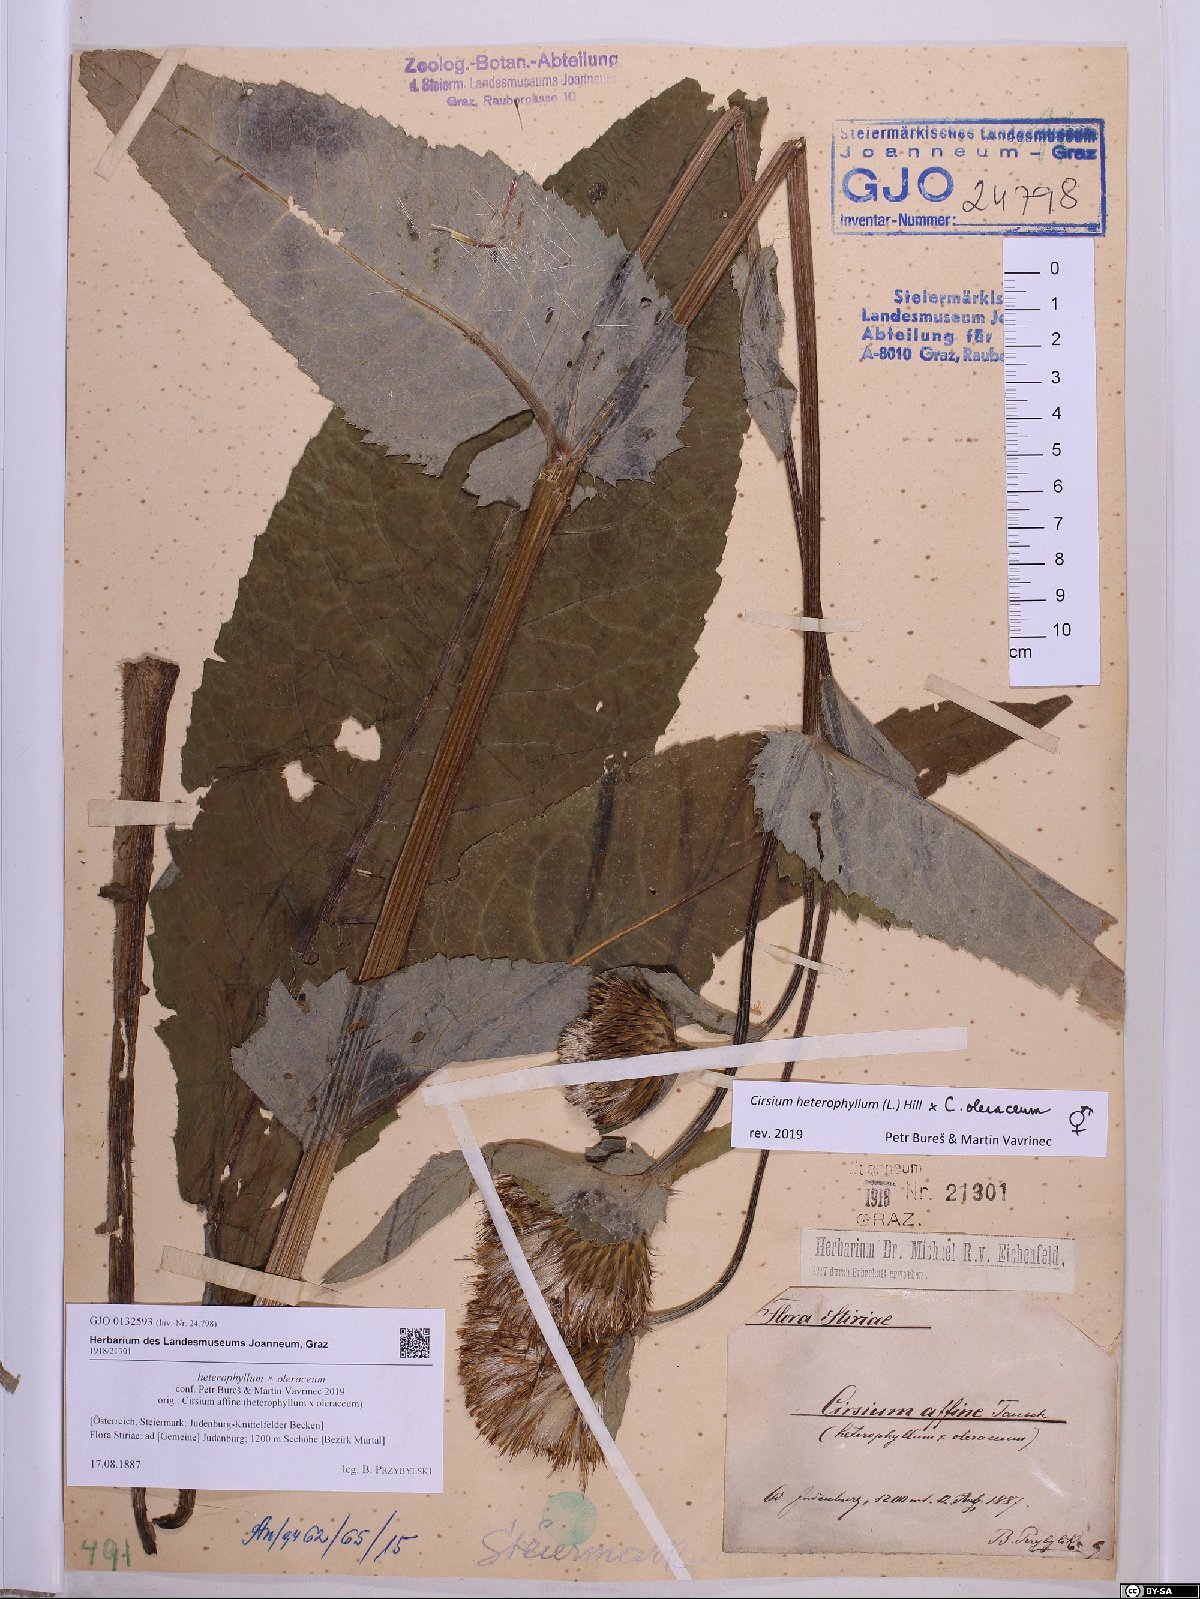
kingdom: Plantae
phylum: Tracheophyta
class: Magnoliopsida
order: Asterales
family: Asteraceae
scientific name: Asteraceae
